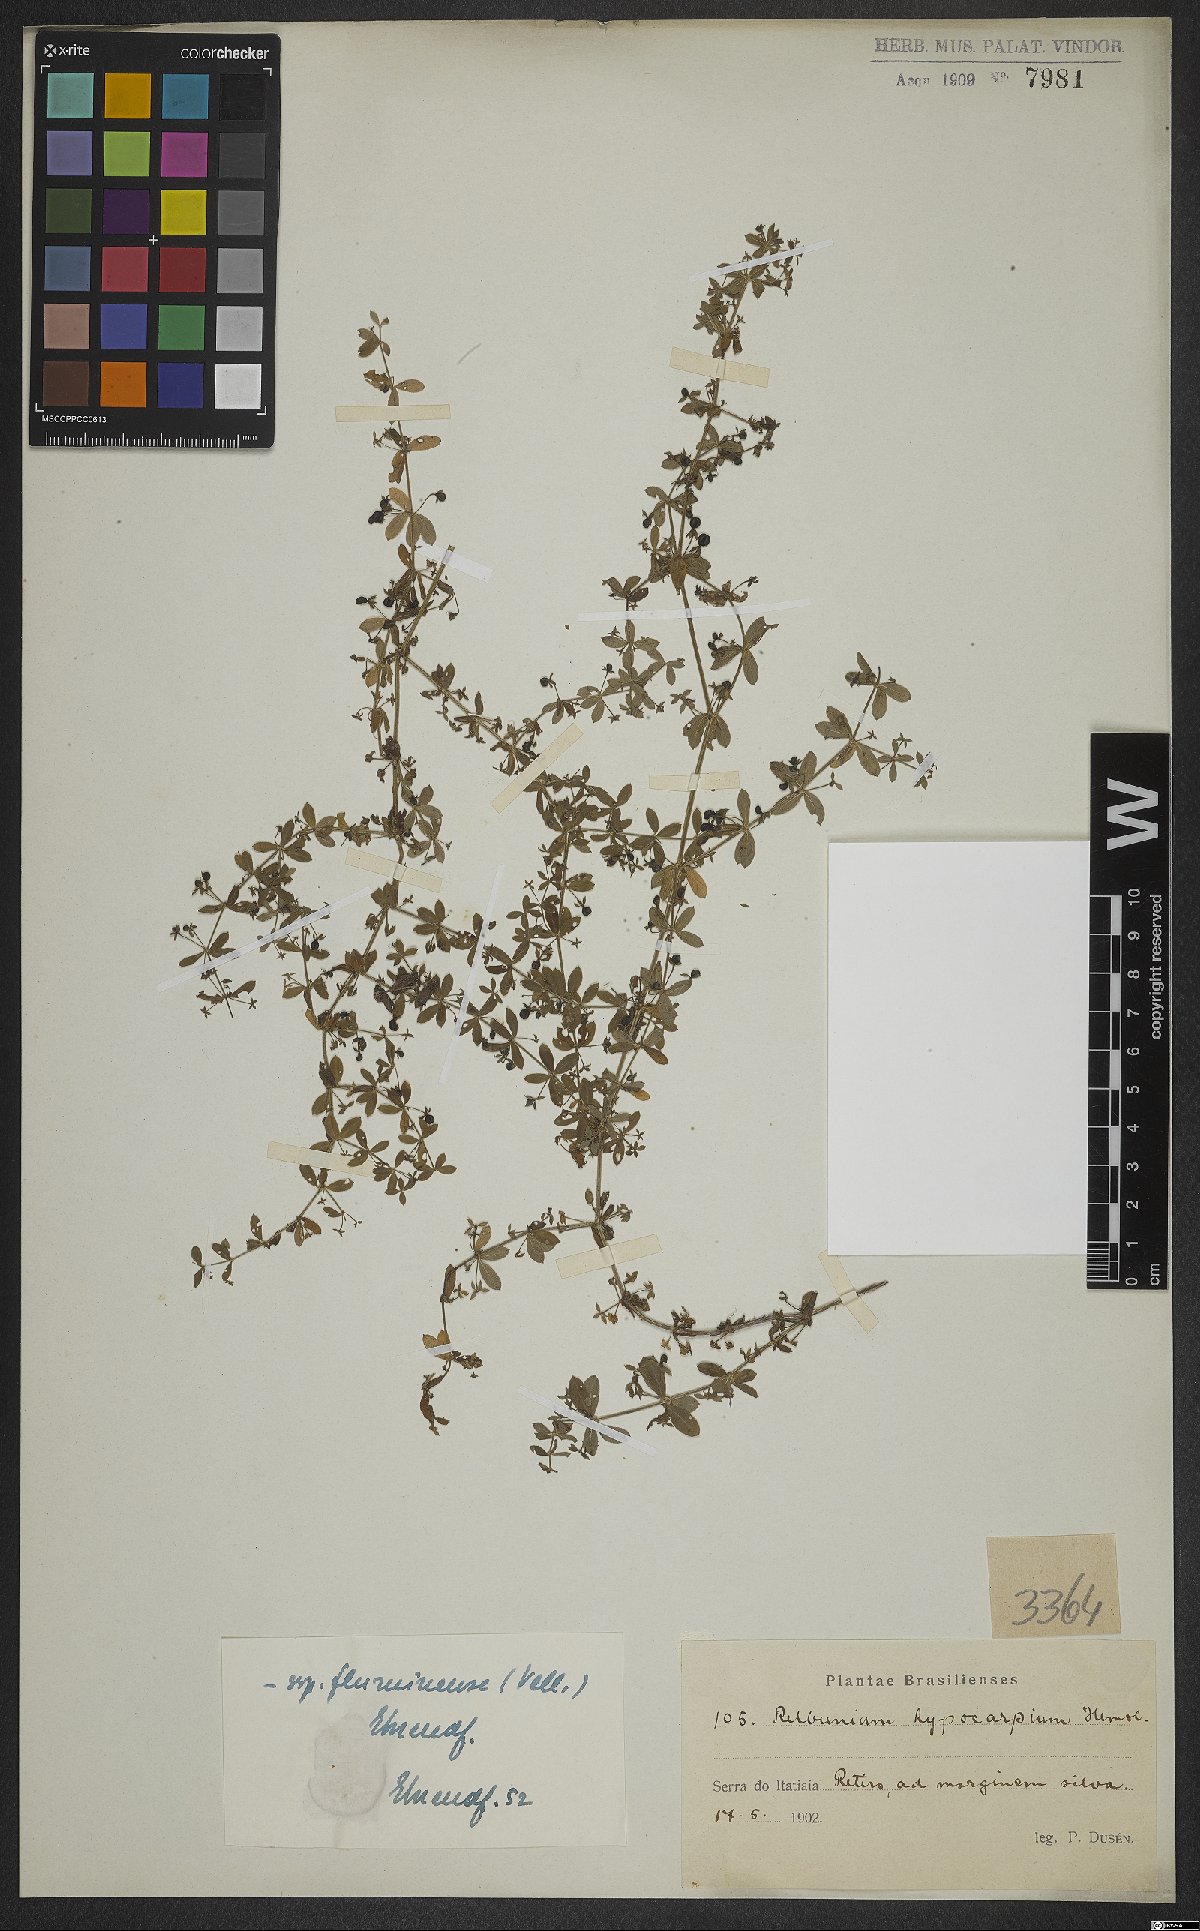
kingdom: Plantae
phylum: Tracheophyta
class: Magnoliopsida
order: Gentianales
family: Rubiaceae
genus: Galium
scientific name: Galium hypocarpium
